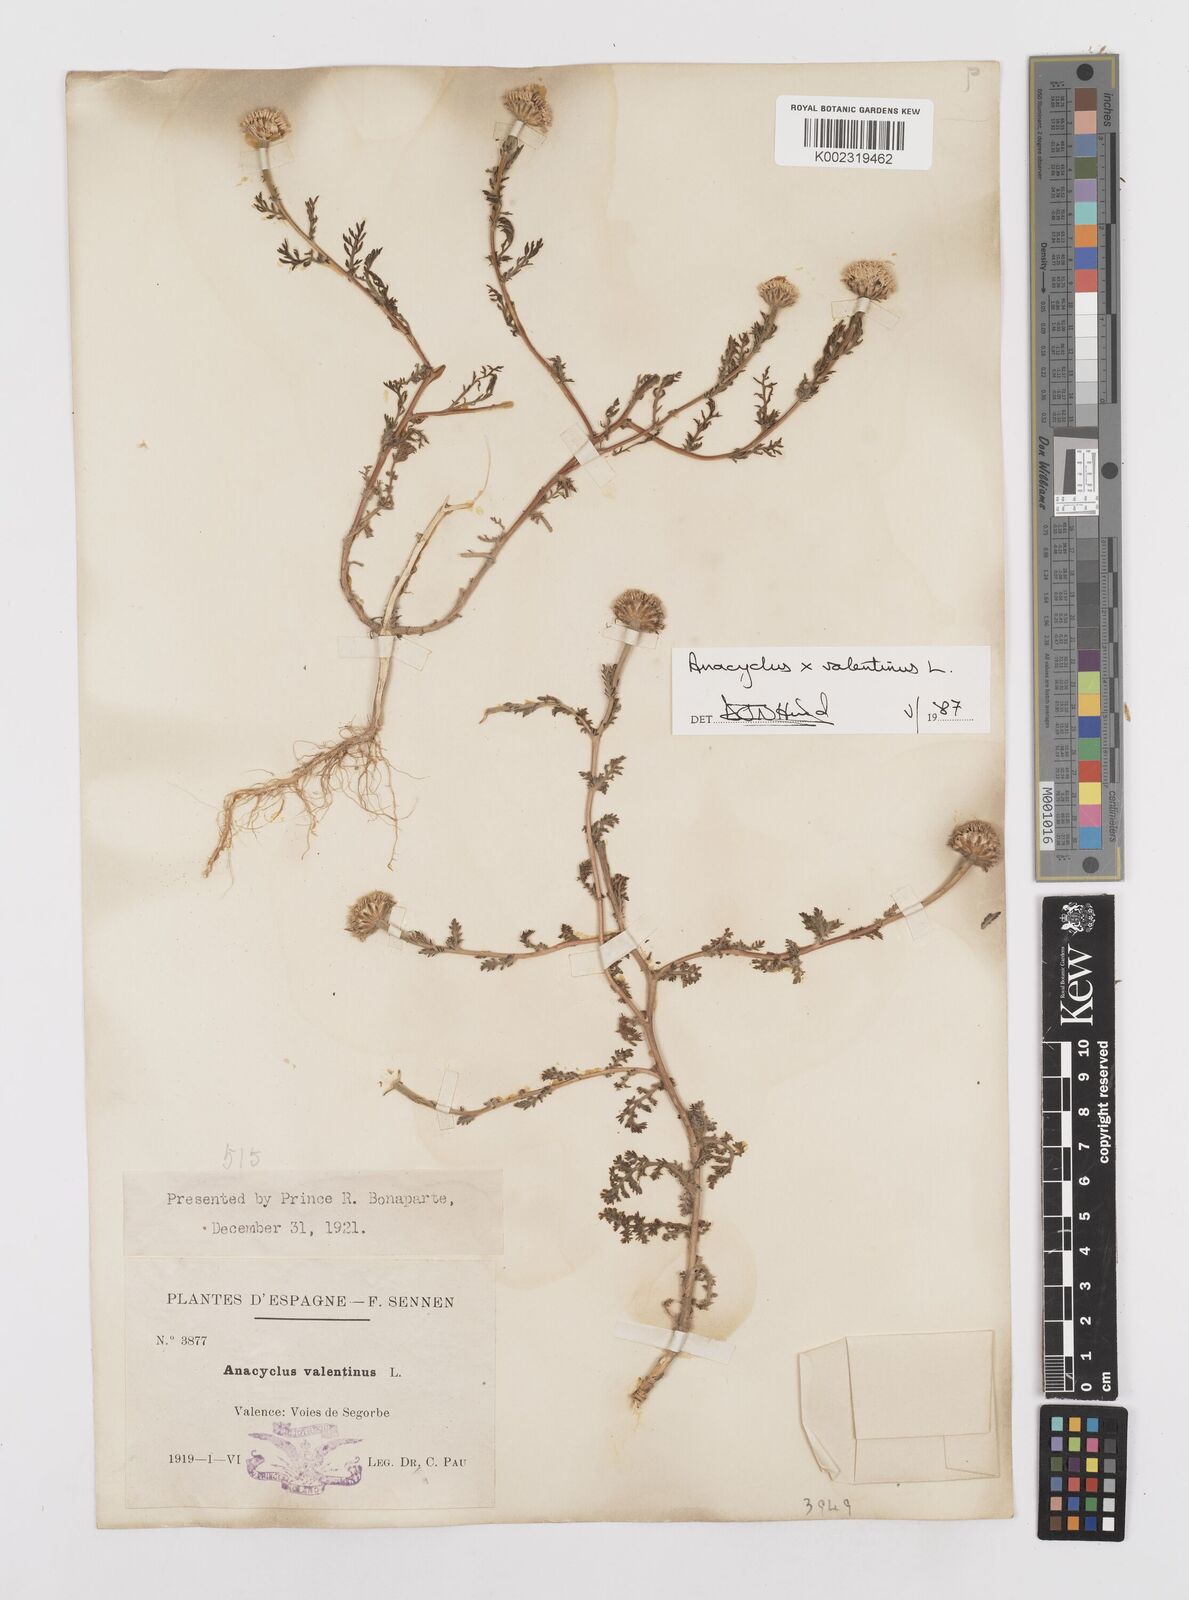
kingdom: Plantae
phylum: Tracheophyta
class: Magnoliopsida
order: Asterales
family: Asteraceae
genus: Anacyclus
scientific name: Anacyclus valentinus
